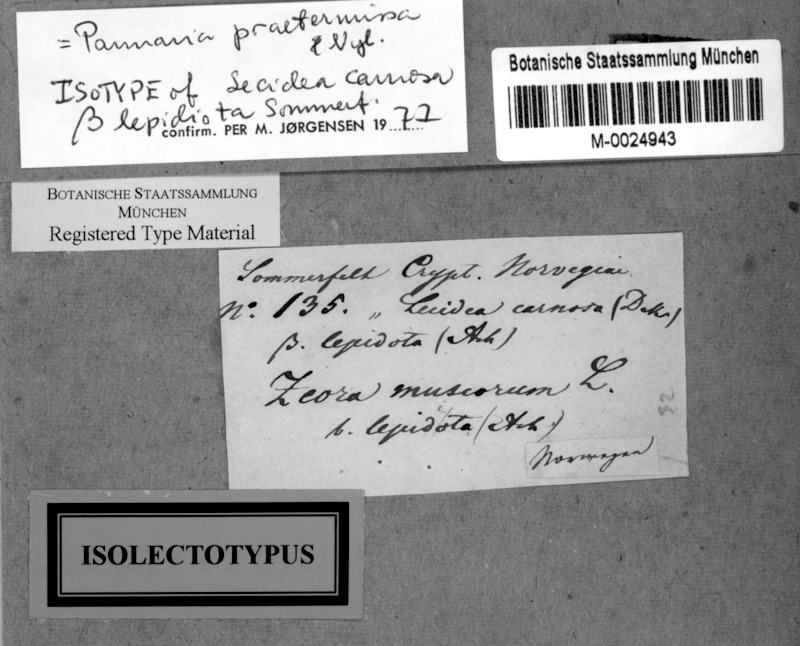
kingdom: Fungi
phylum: Ascomycota
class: Lecanoromycetes
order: Peltigerales
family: Pannariaceae
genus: Fuscopannaria
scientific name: Fuscopannaria praetermissa
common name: Moss shingle lichen
